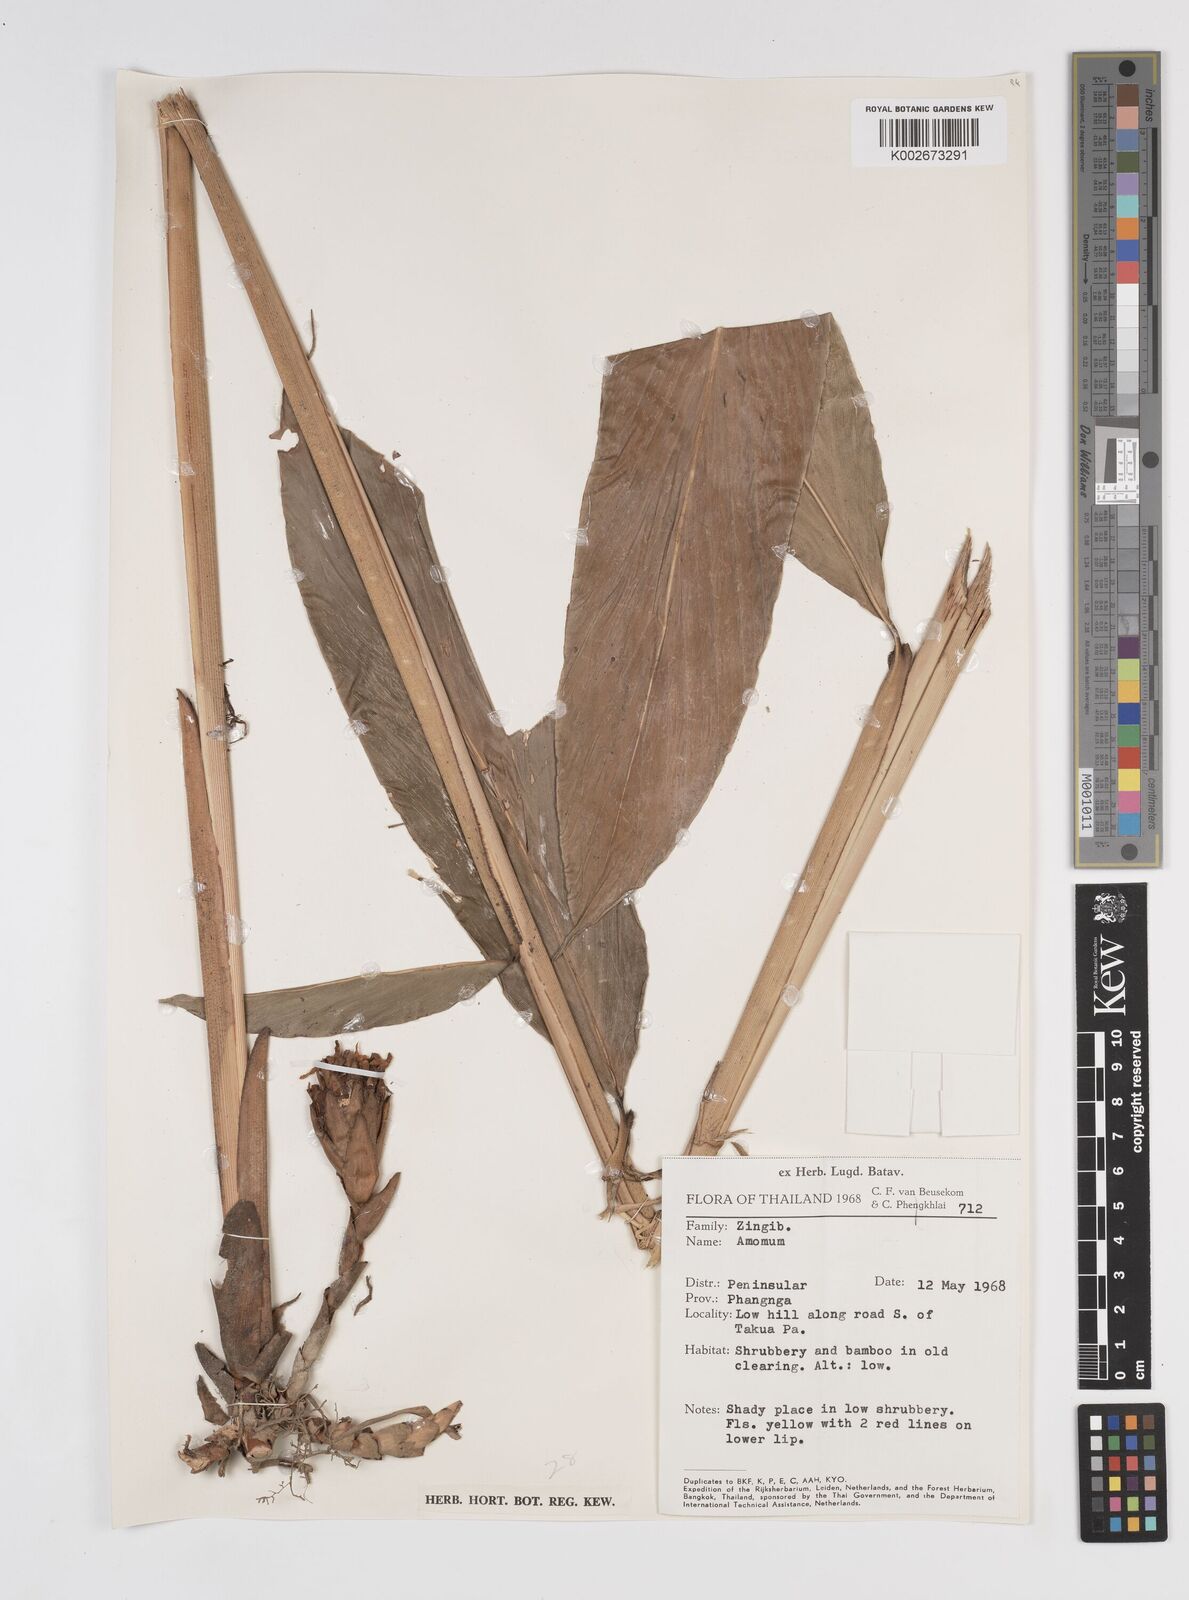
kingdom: Plantae
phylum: Tracheophyta
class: Liliopsida
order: Zingiberales
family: Zingiberaceae
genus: Amomum
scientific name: Amomum
